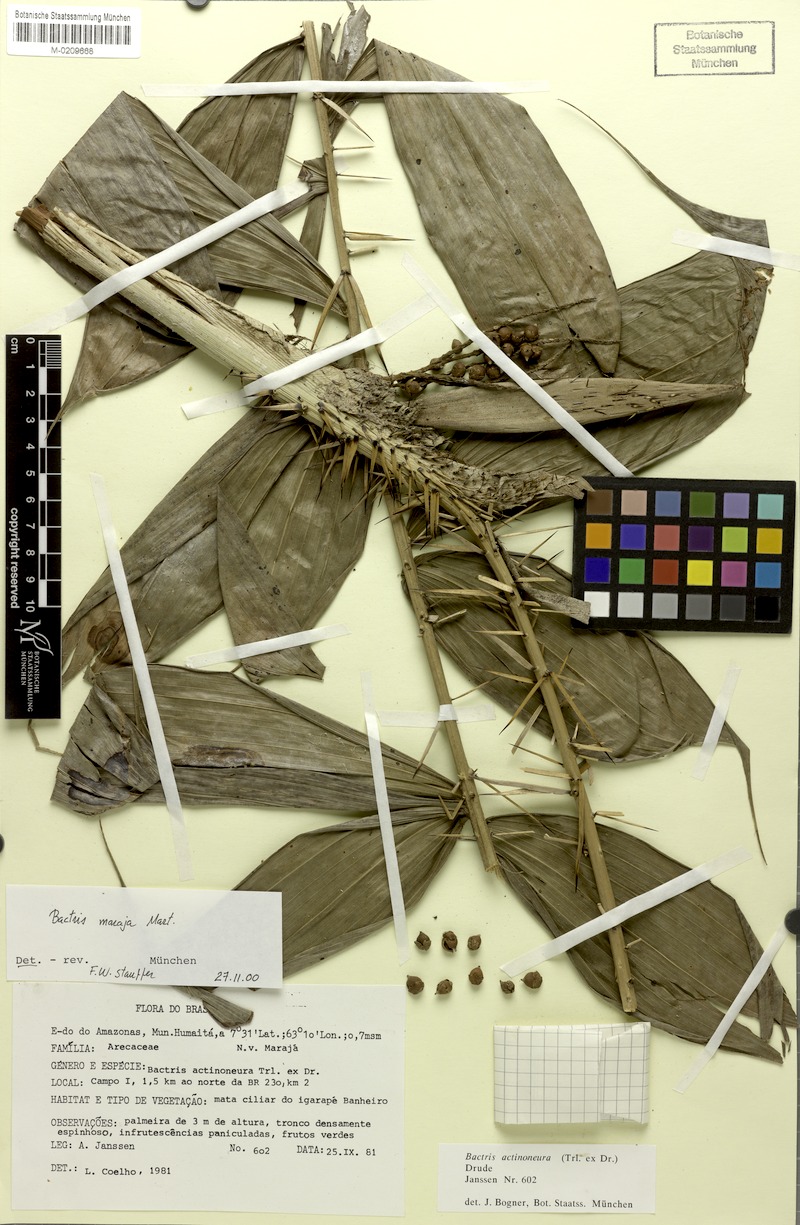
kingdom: Plantae
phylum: Tracheophyta
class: Liliopsida
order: Arecales
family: Arecaceae
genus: Bactris
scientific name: Bactris maraja
